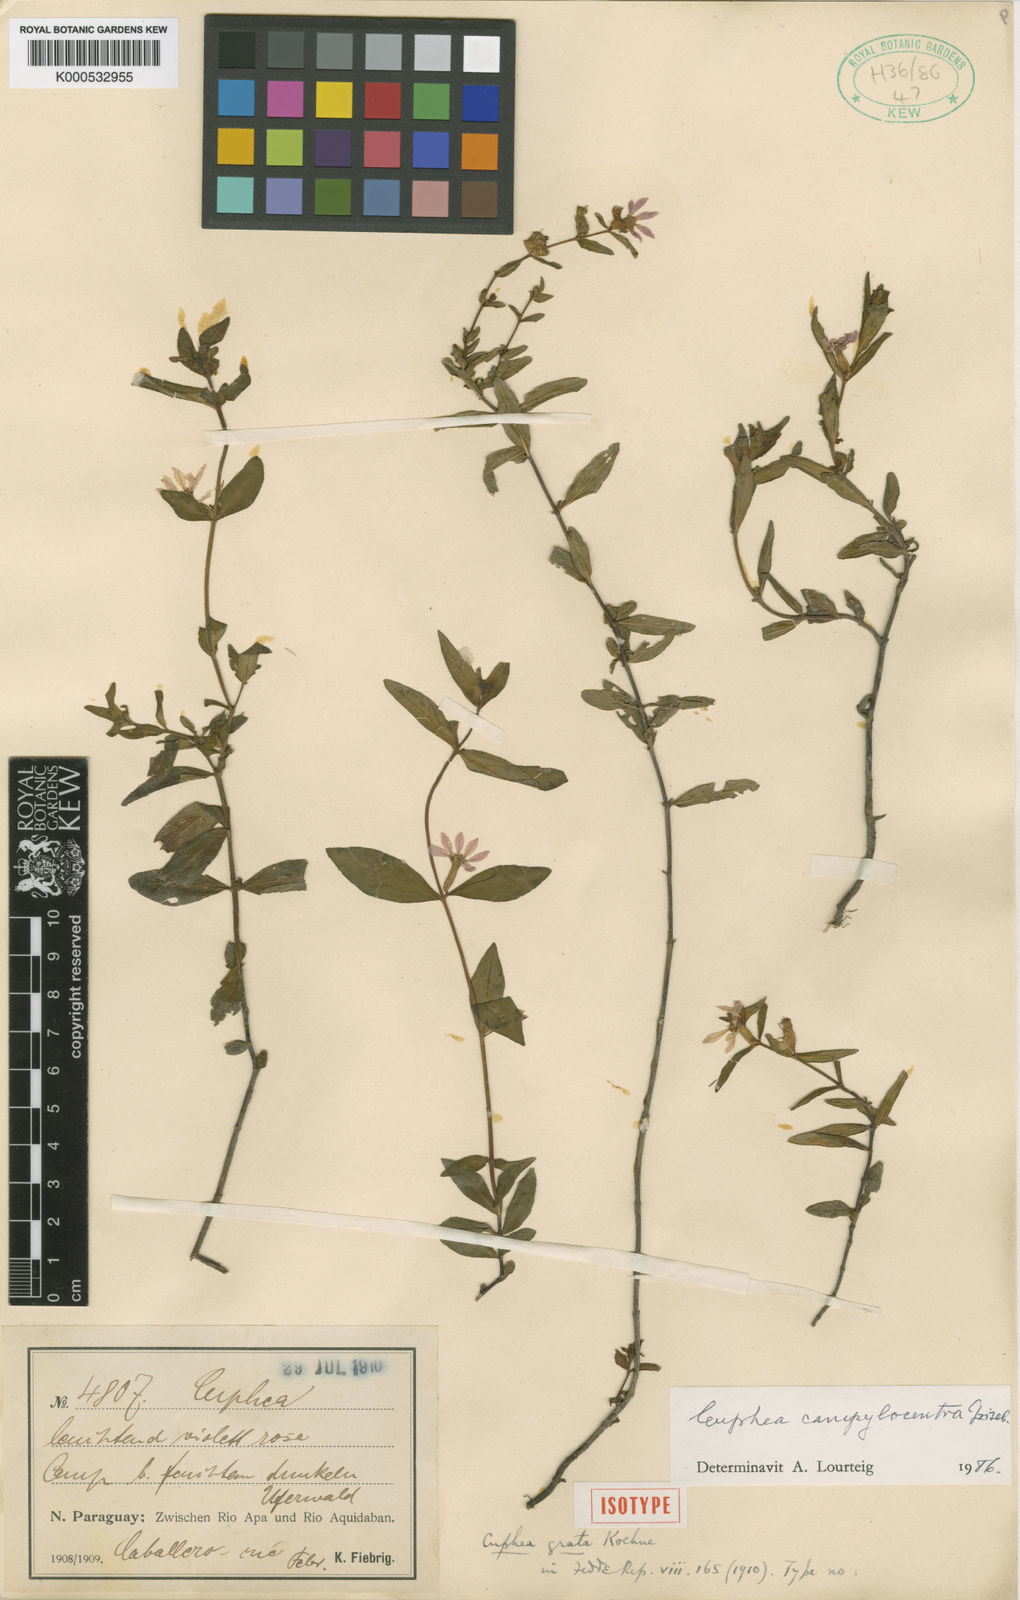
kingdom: Plantae
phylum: Tracheophyta
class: Magnoliopsida
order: Myrtales
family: Lythraceae
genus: Cuphea
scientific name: Cuphea campylocentra
